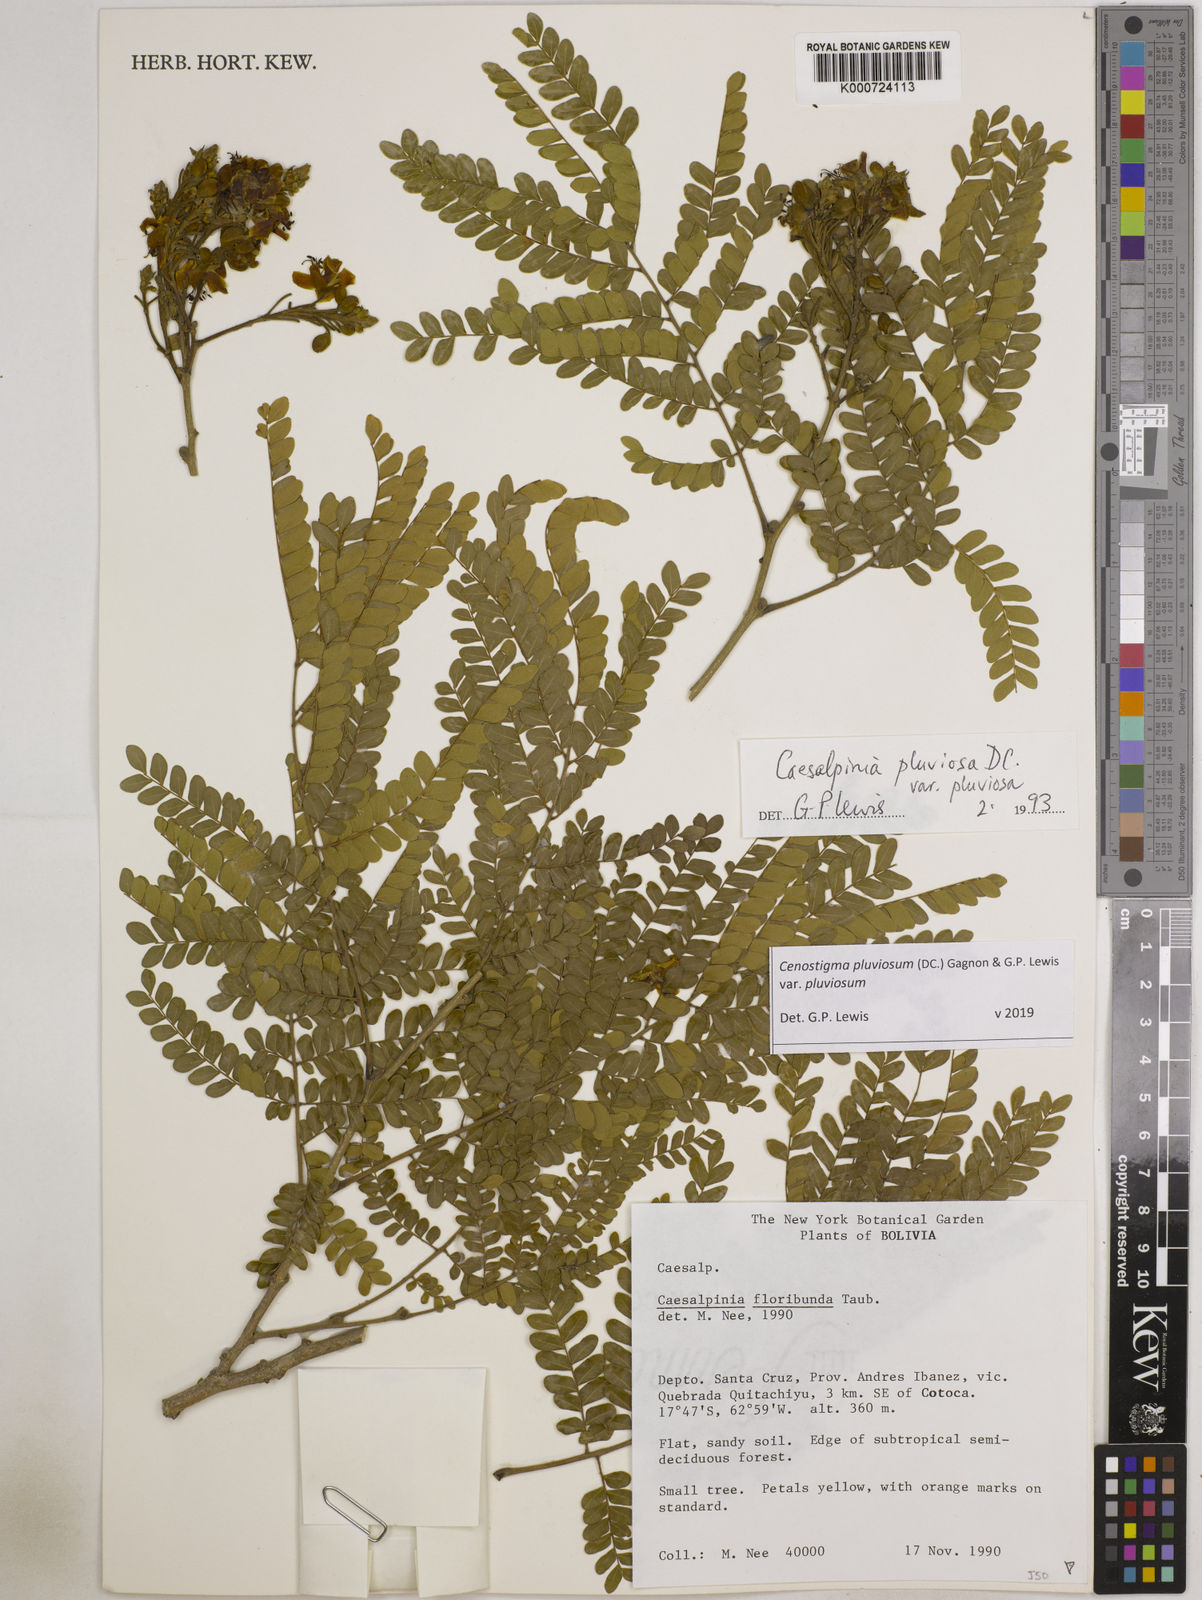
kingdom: Plantae
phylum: Tracheophyta
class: Magnoliopsida
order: Fabales
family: Fabaceae
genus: Cenostigma
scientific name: Cenostigma pluviosum
